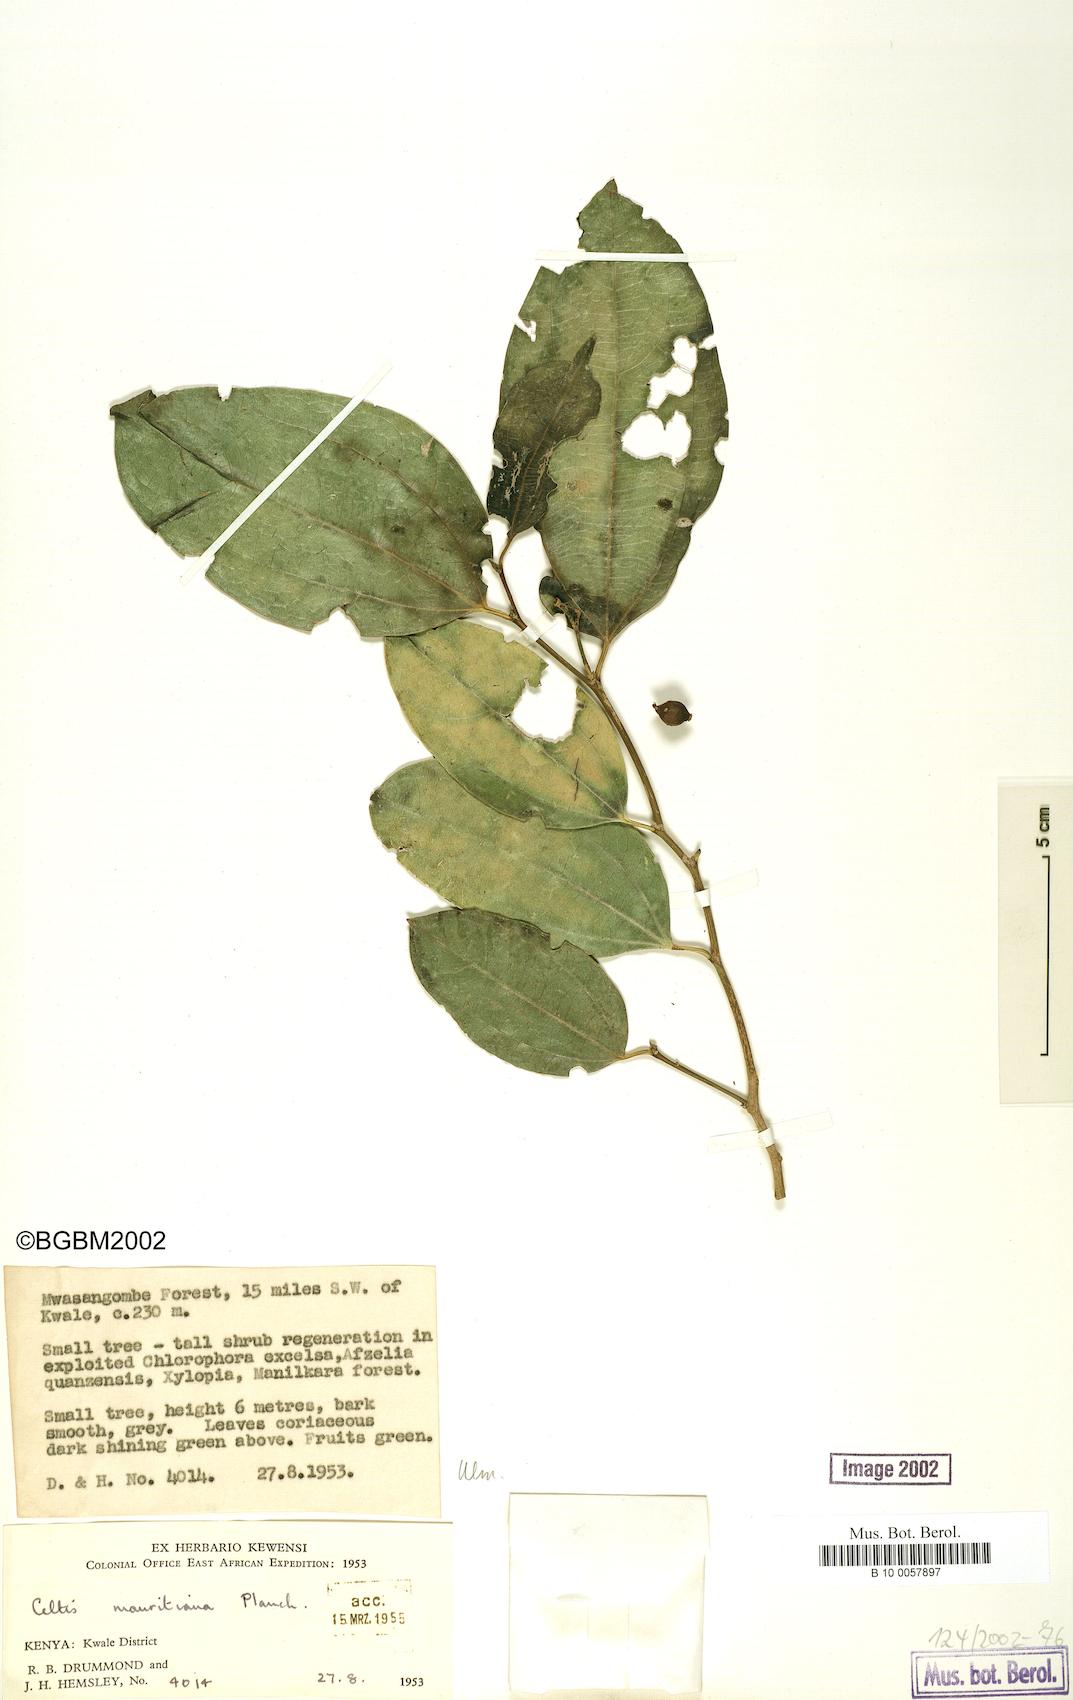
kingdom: Plantae
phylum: Tracheophyta
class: Magnoliopsida
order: Rosales
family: Cannabaceae
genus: Celtis
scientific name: Celtis philippensis
